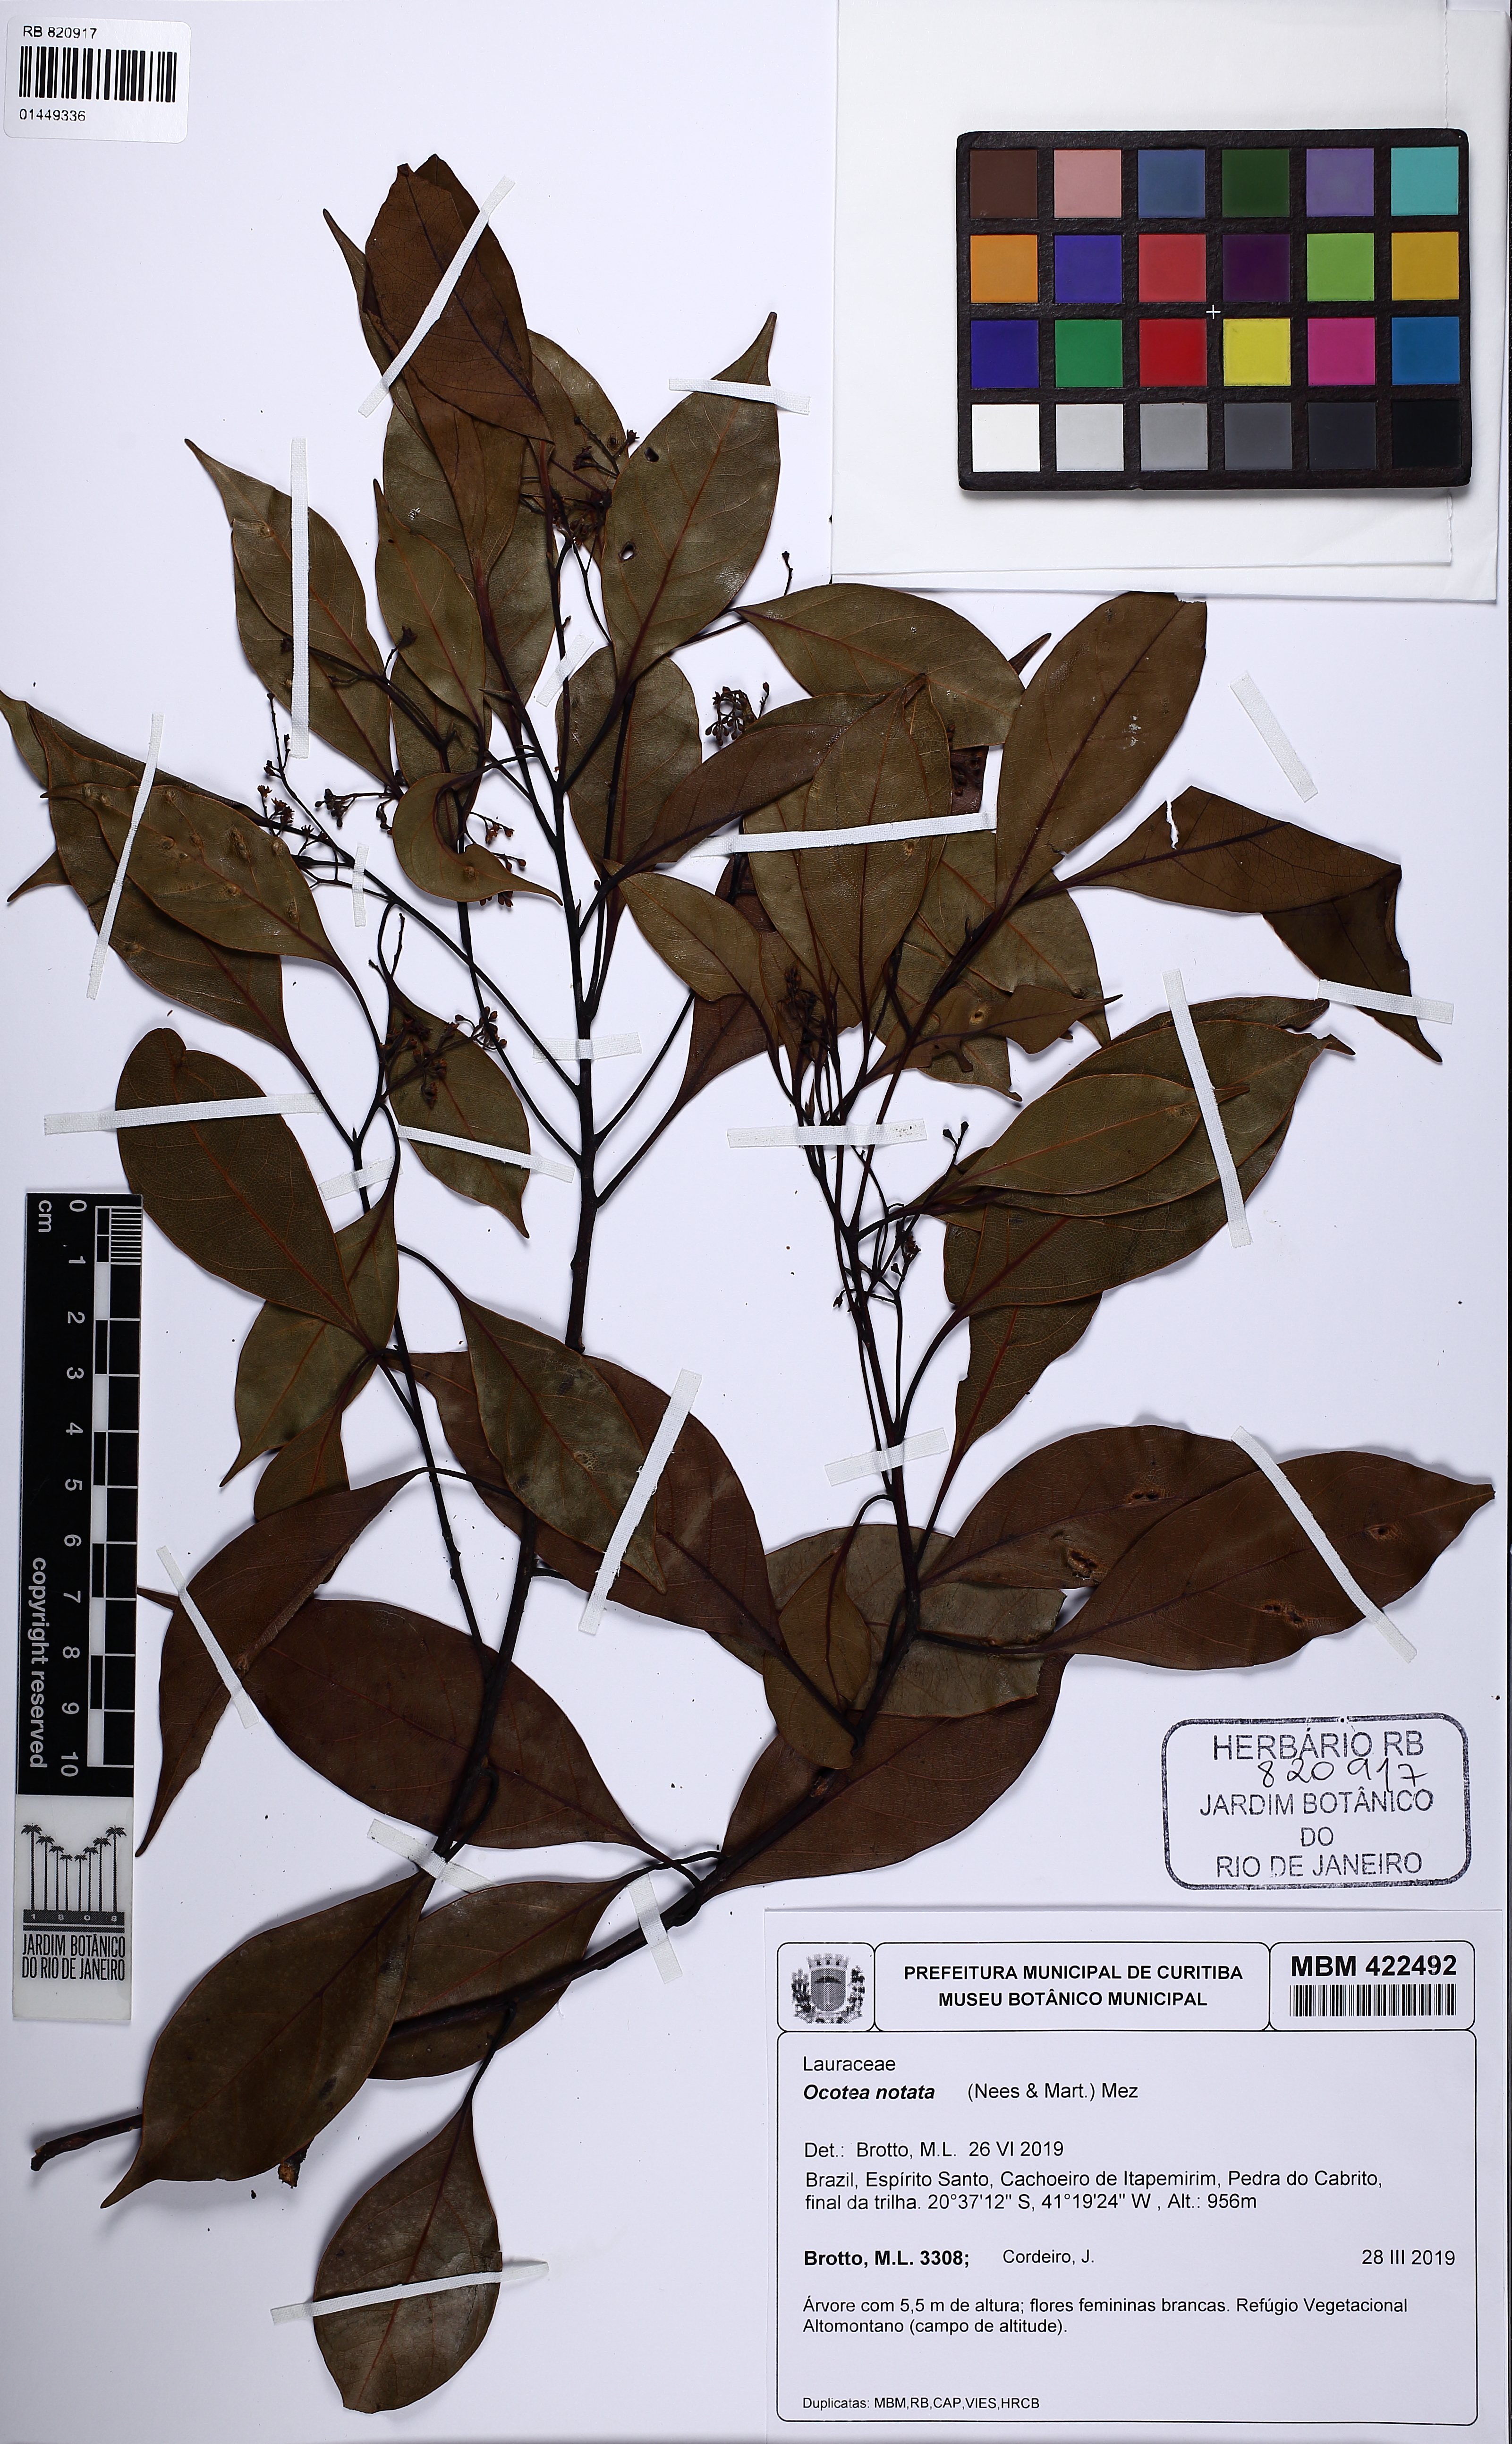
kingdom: Plantae
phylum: Tracheophyta
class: Magnoliopsida
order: Laurales
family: Lauraceae
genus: Mespilodaphne
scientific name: Mespilodaphne notata
